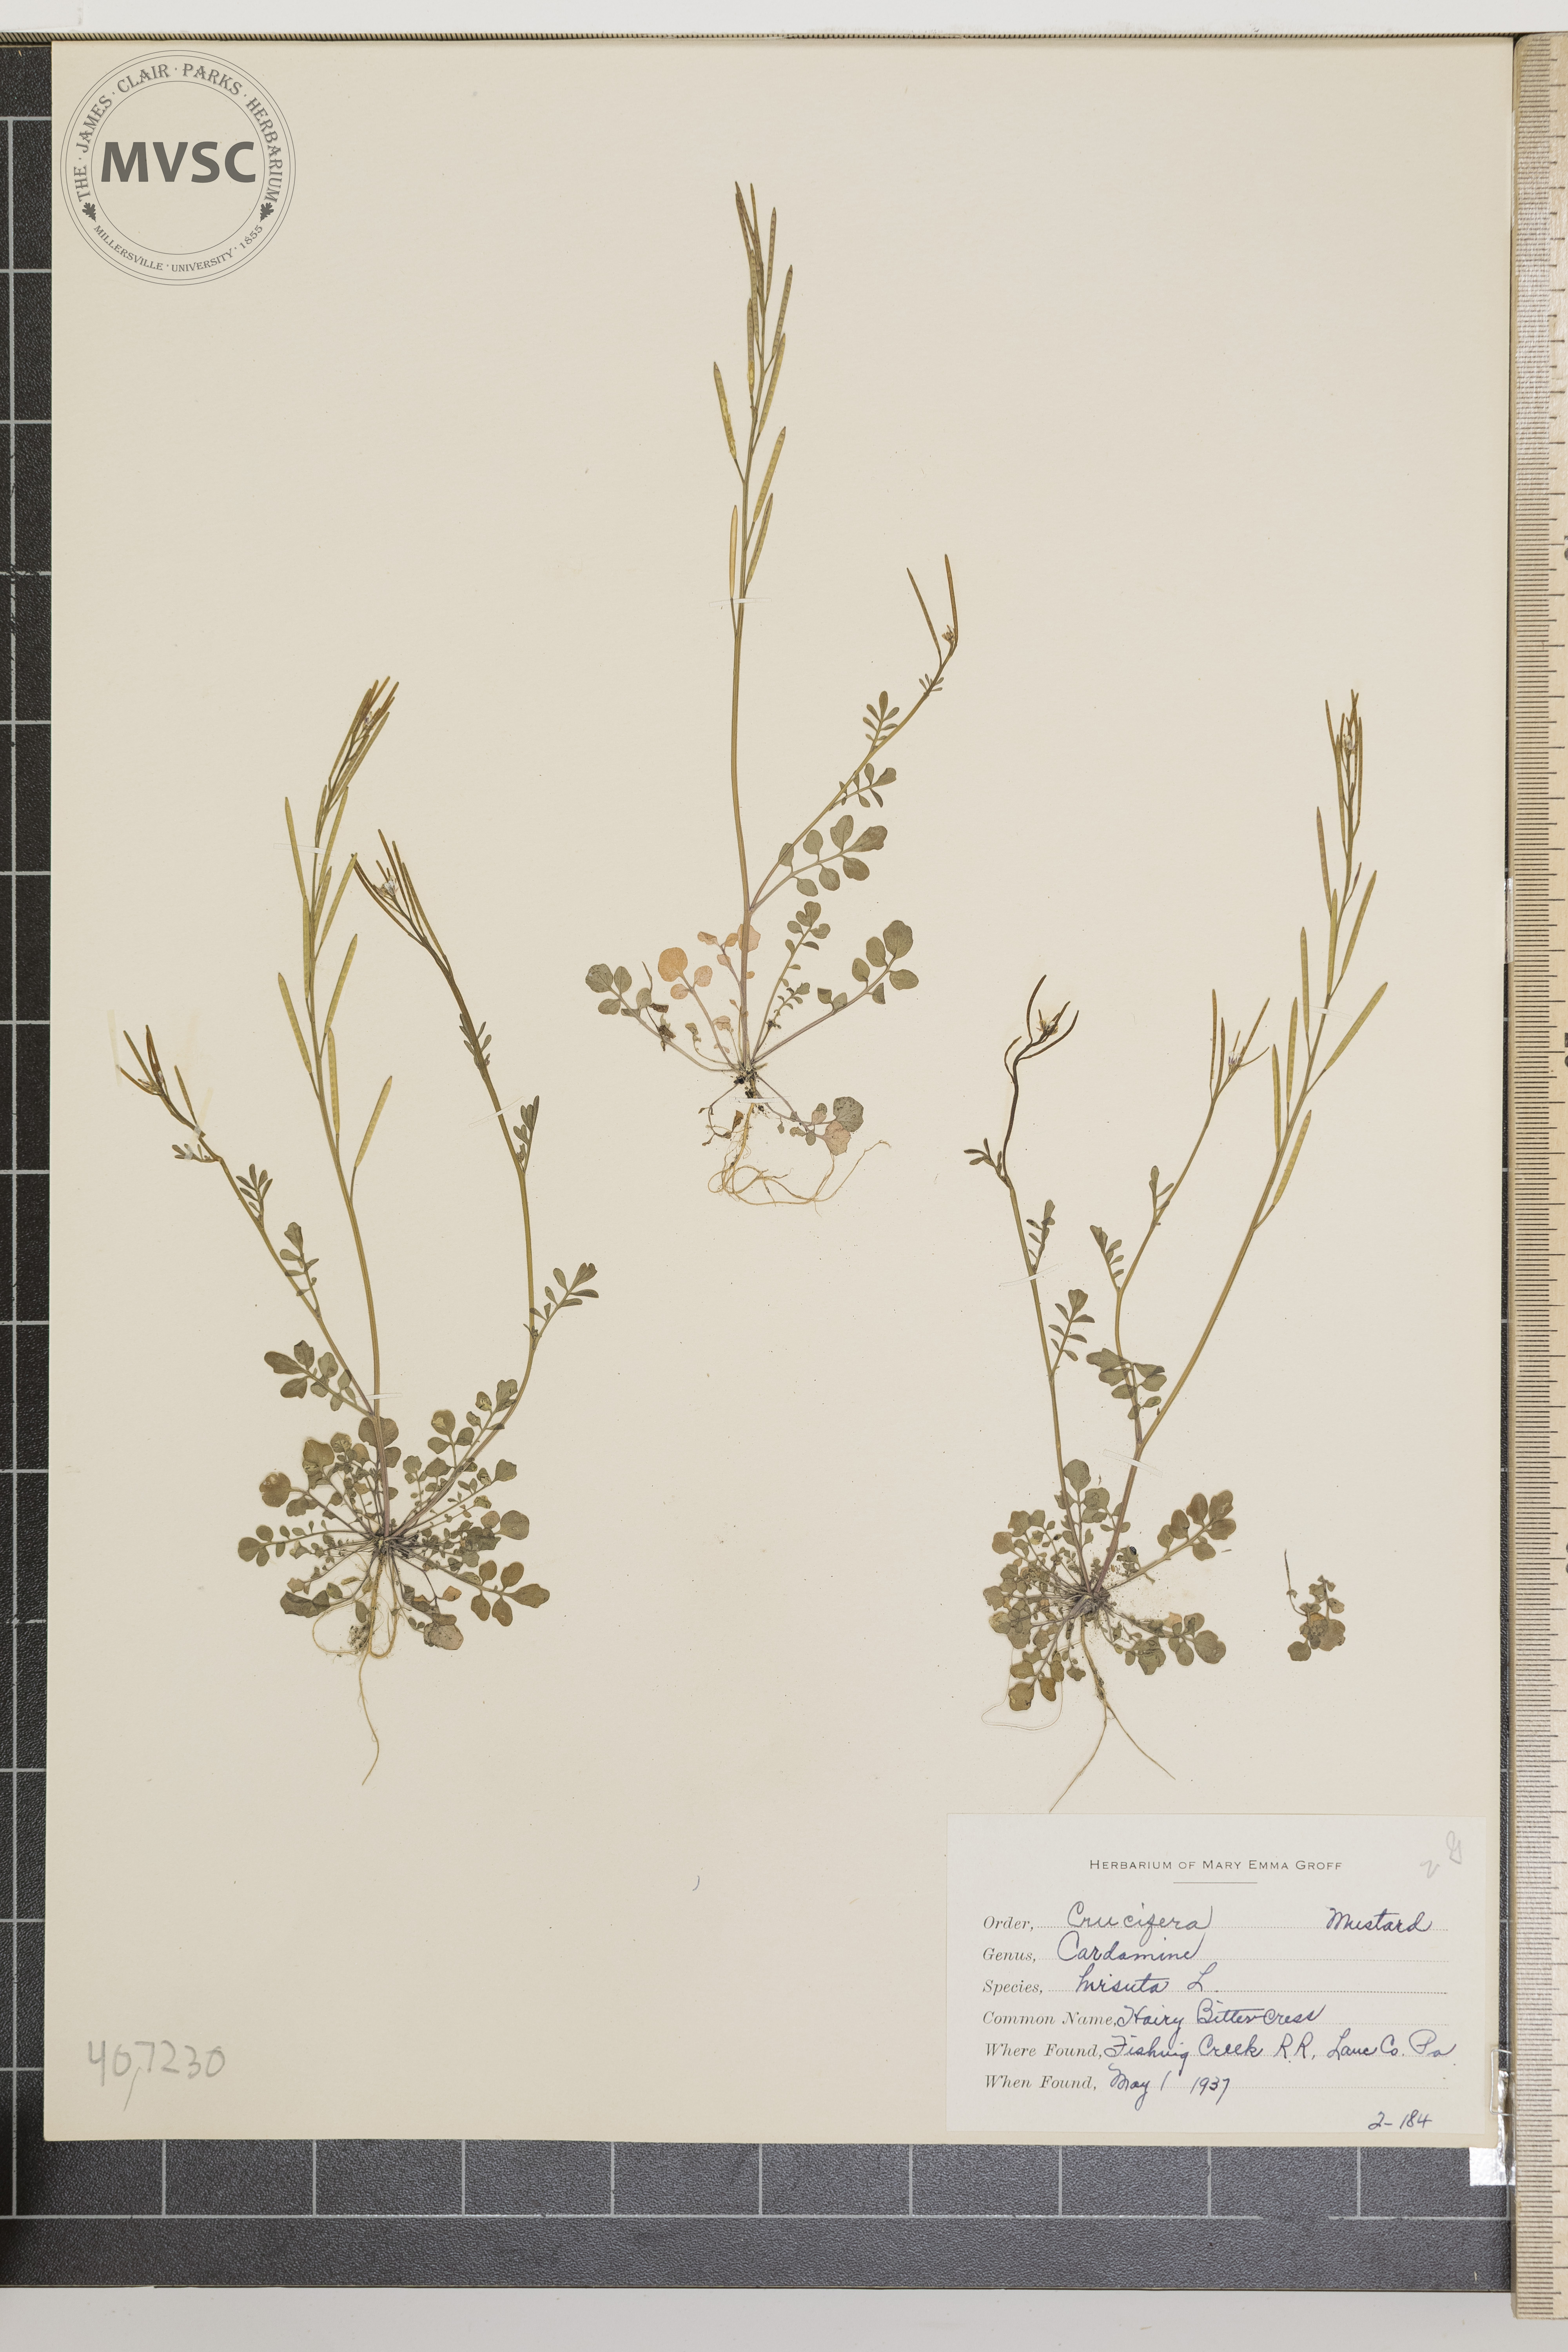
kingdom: Plantae
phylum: Tracheophyta
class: Magnoliopsida
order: Brassicales
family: Brassicaceae
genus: Cardamine
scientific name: Cardamine hirsuta
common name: Hairy Bittercress
